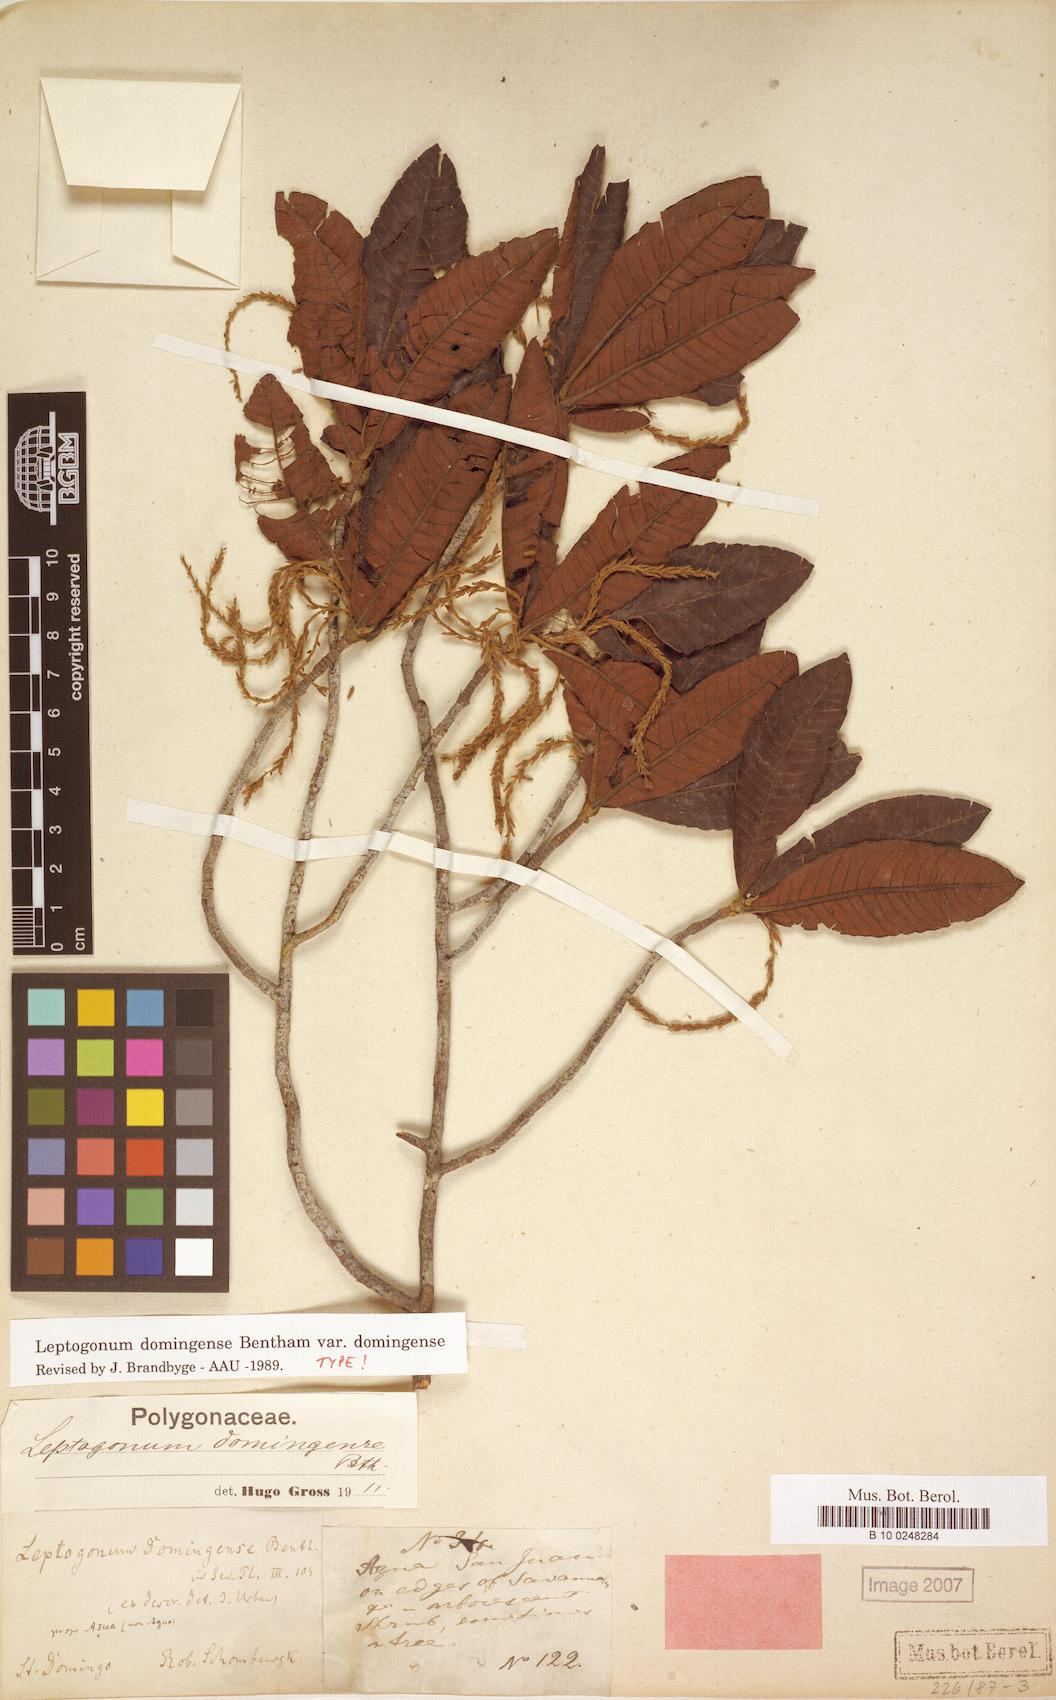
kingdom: Plantae
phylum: Tracheophyta
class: Magnoliopsida
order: Caryophyllales
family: Polygonaceae
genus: Leptogonum
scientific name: Leptogonum domingense
